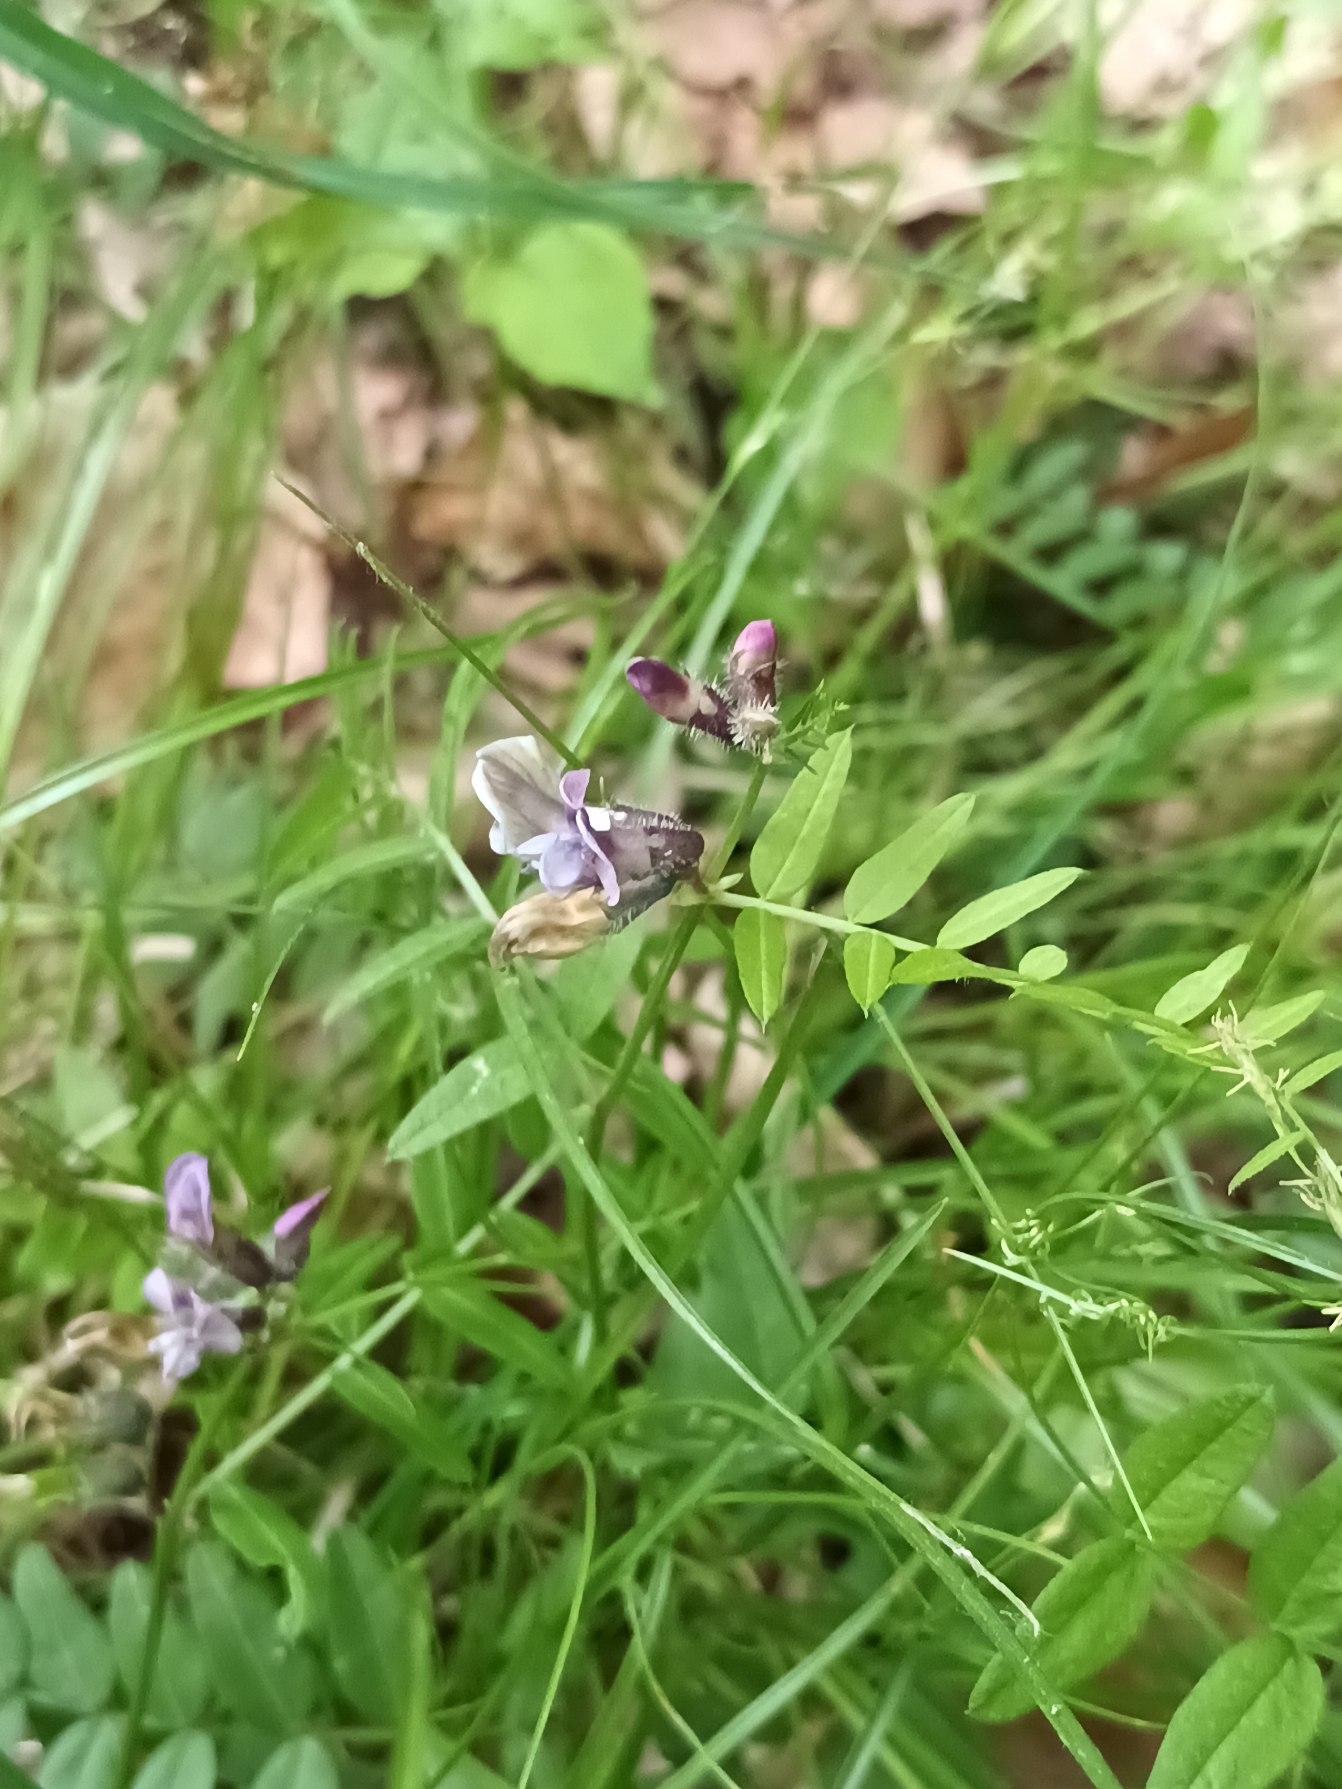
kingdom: Plantae
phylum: Tracheophyta
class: Magnoliopsida
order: Fabales
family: Fabaceae
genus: Vicia
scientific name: Vicia sepium
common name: Gærde-vikke
